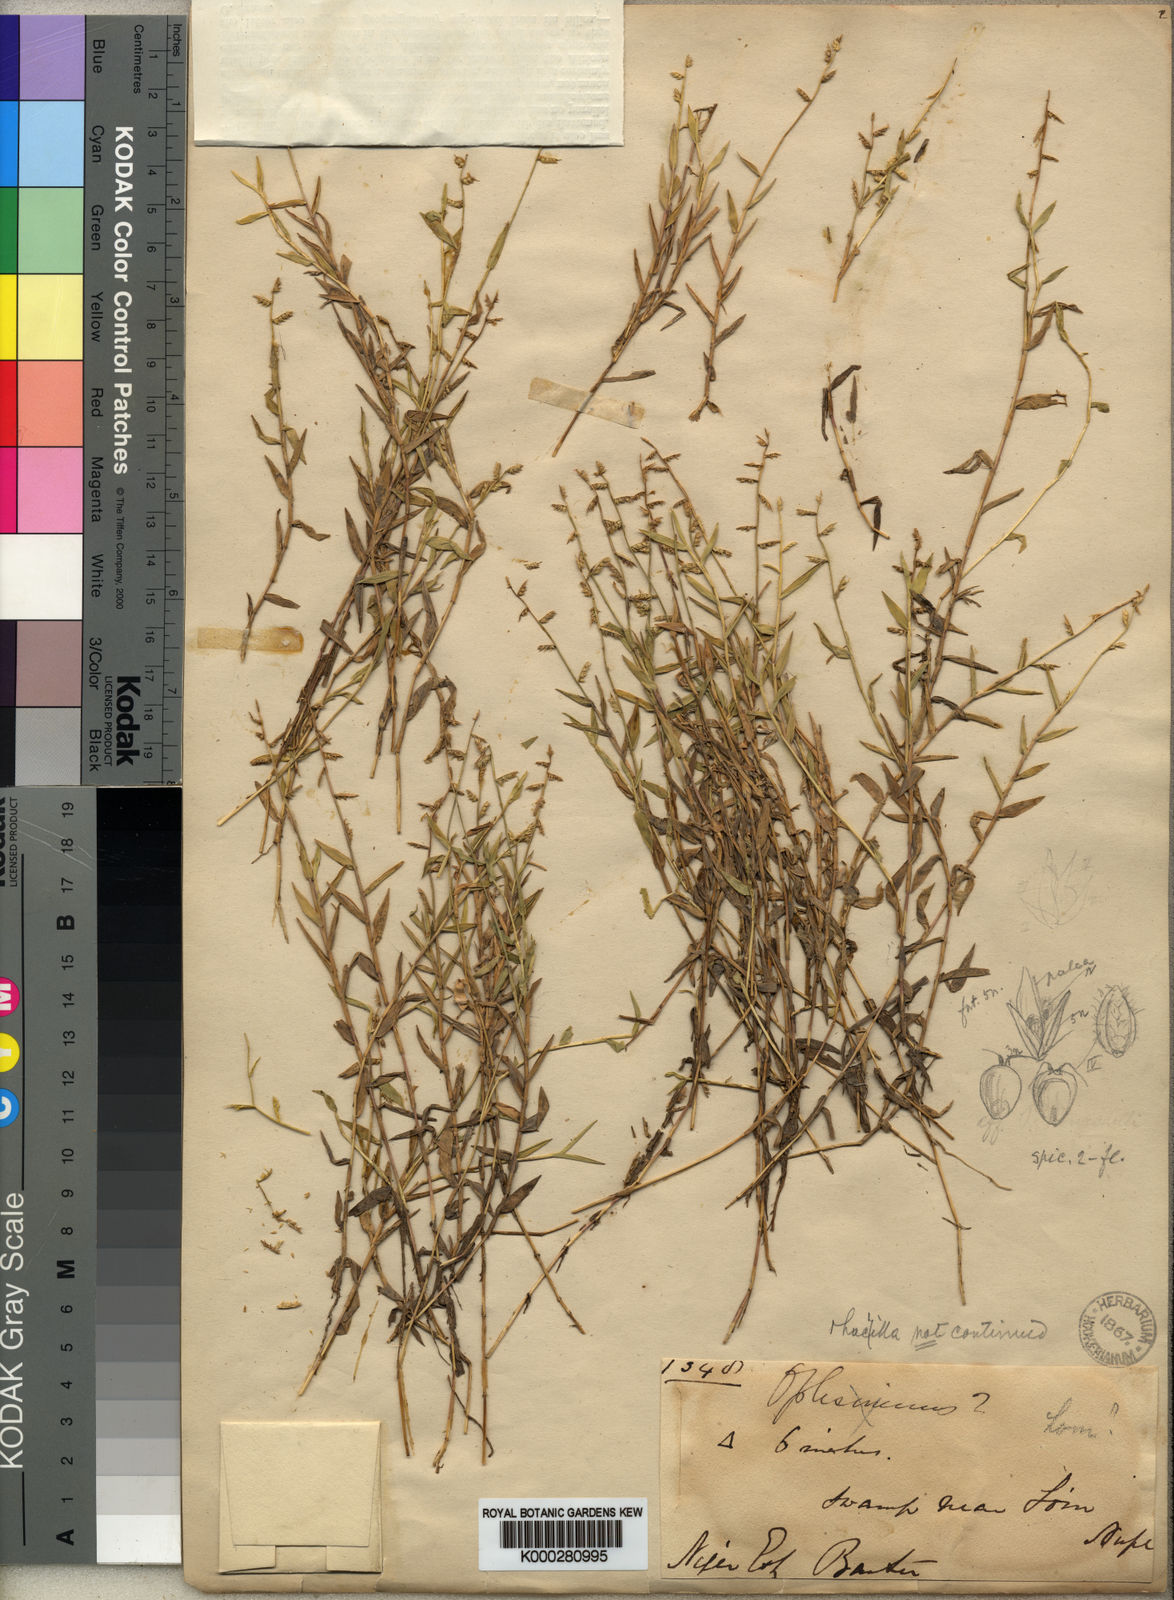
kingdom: Plantae
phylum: Tracheophyta
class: Liliopsida
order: Poales
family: Poaceae
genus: Heteranthoecia
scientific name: Heteranthoecia guineensis
